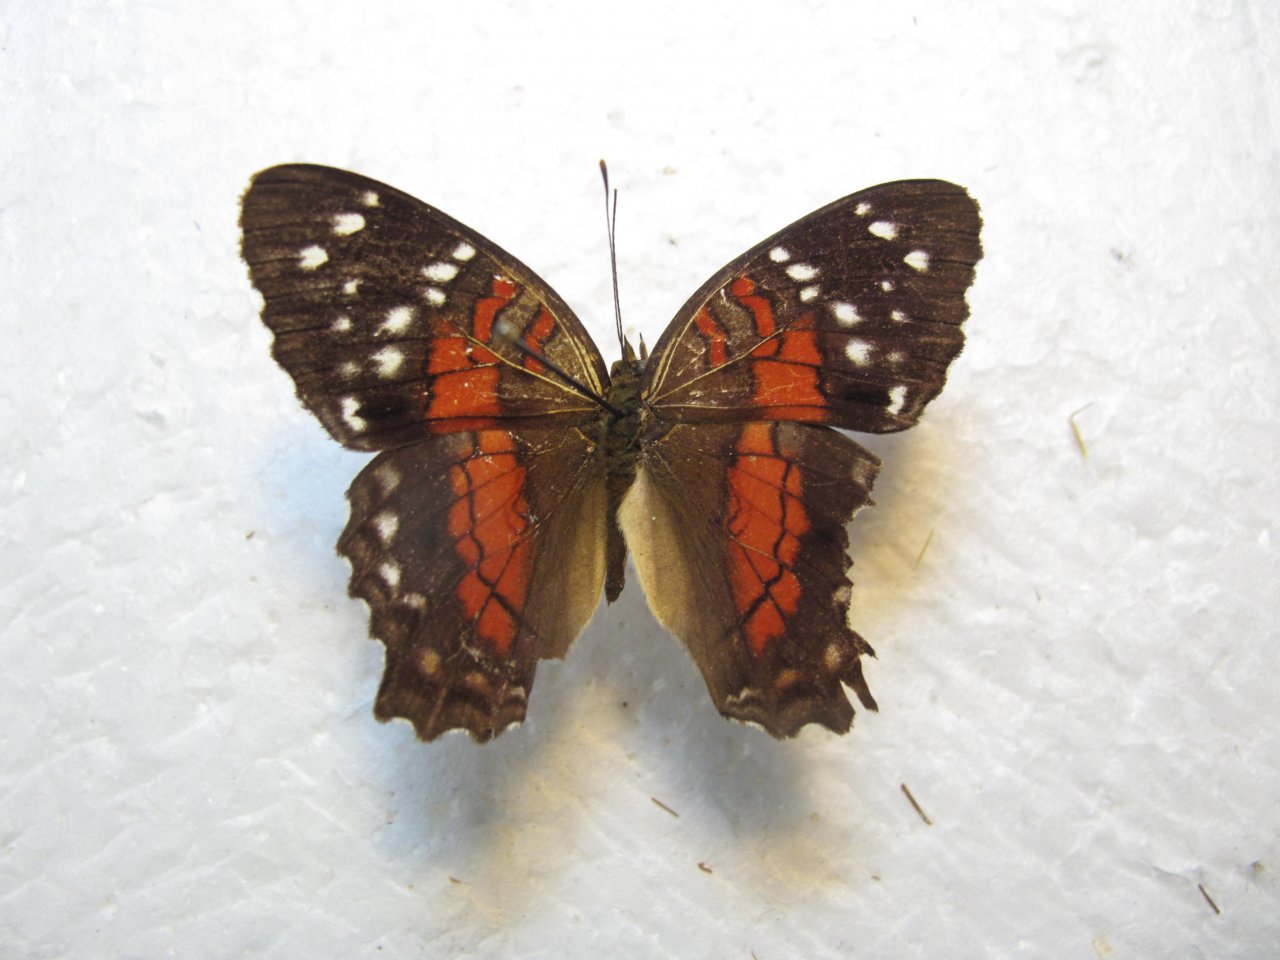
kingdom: Animalia
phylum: Arthropoda
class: Insecta
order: Lepidoptera
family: Nymphalidae
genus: Anartia
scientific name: Anartia amathea
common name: Red Peacock
